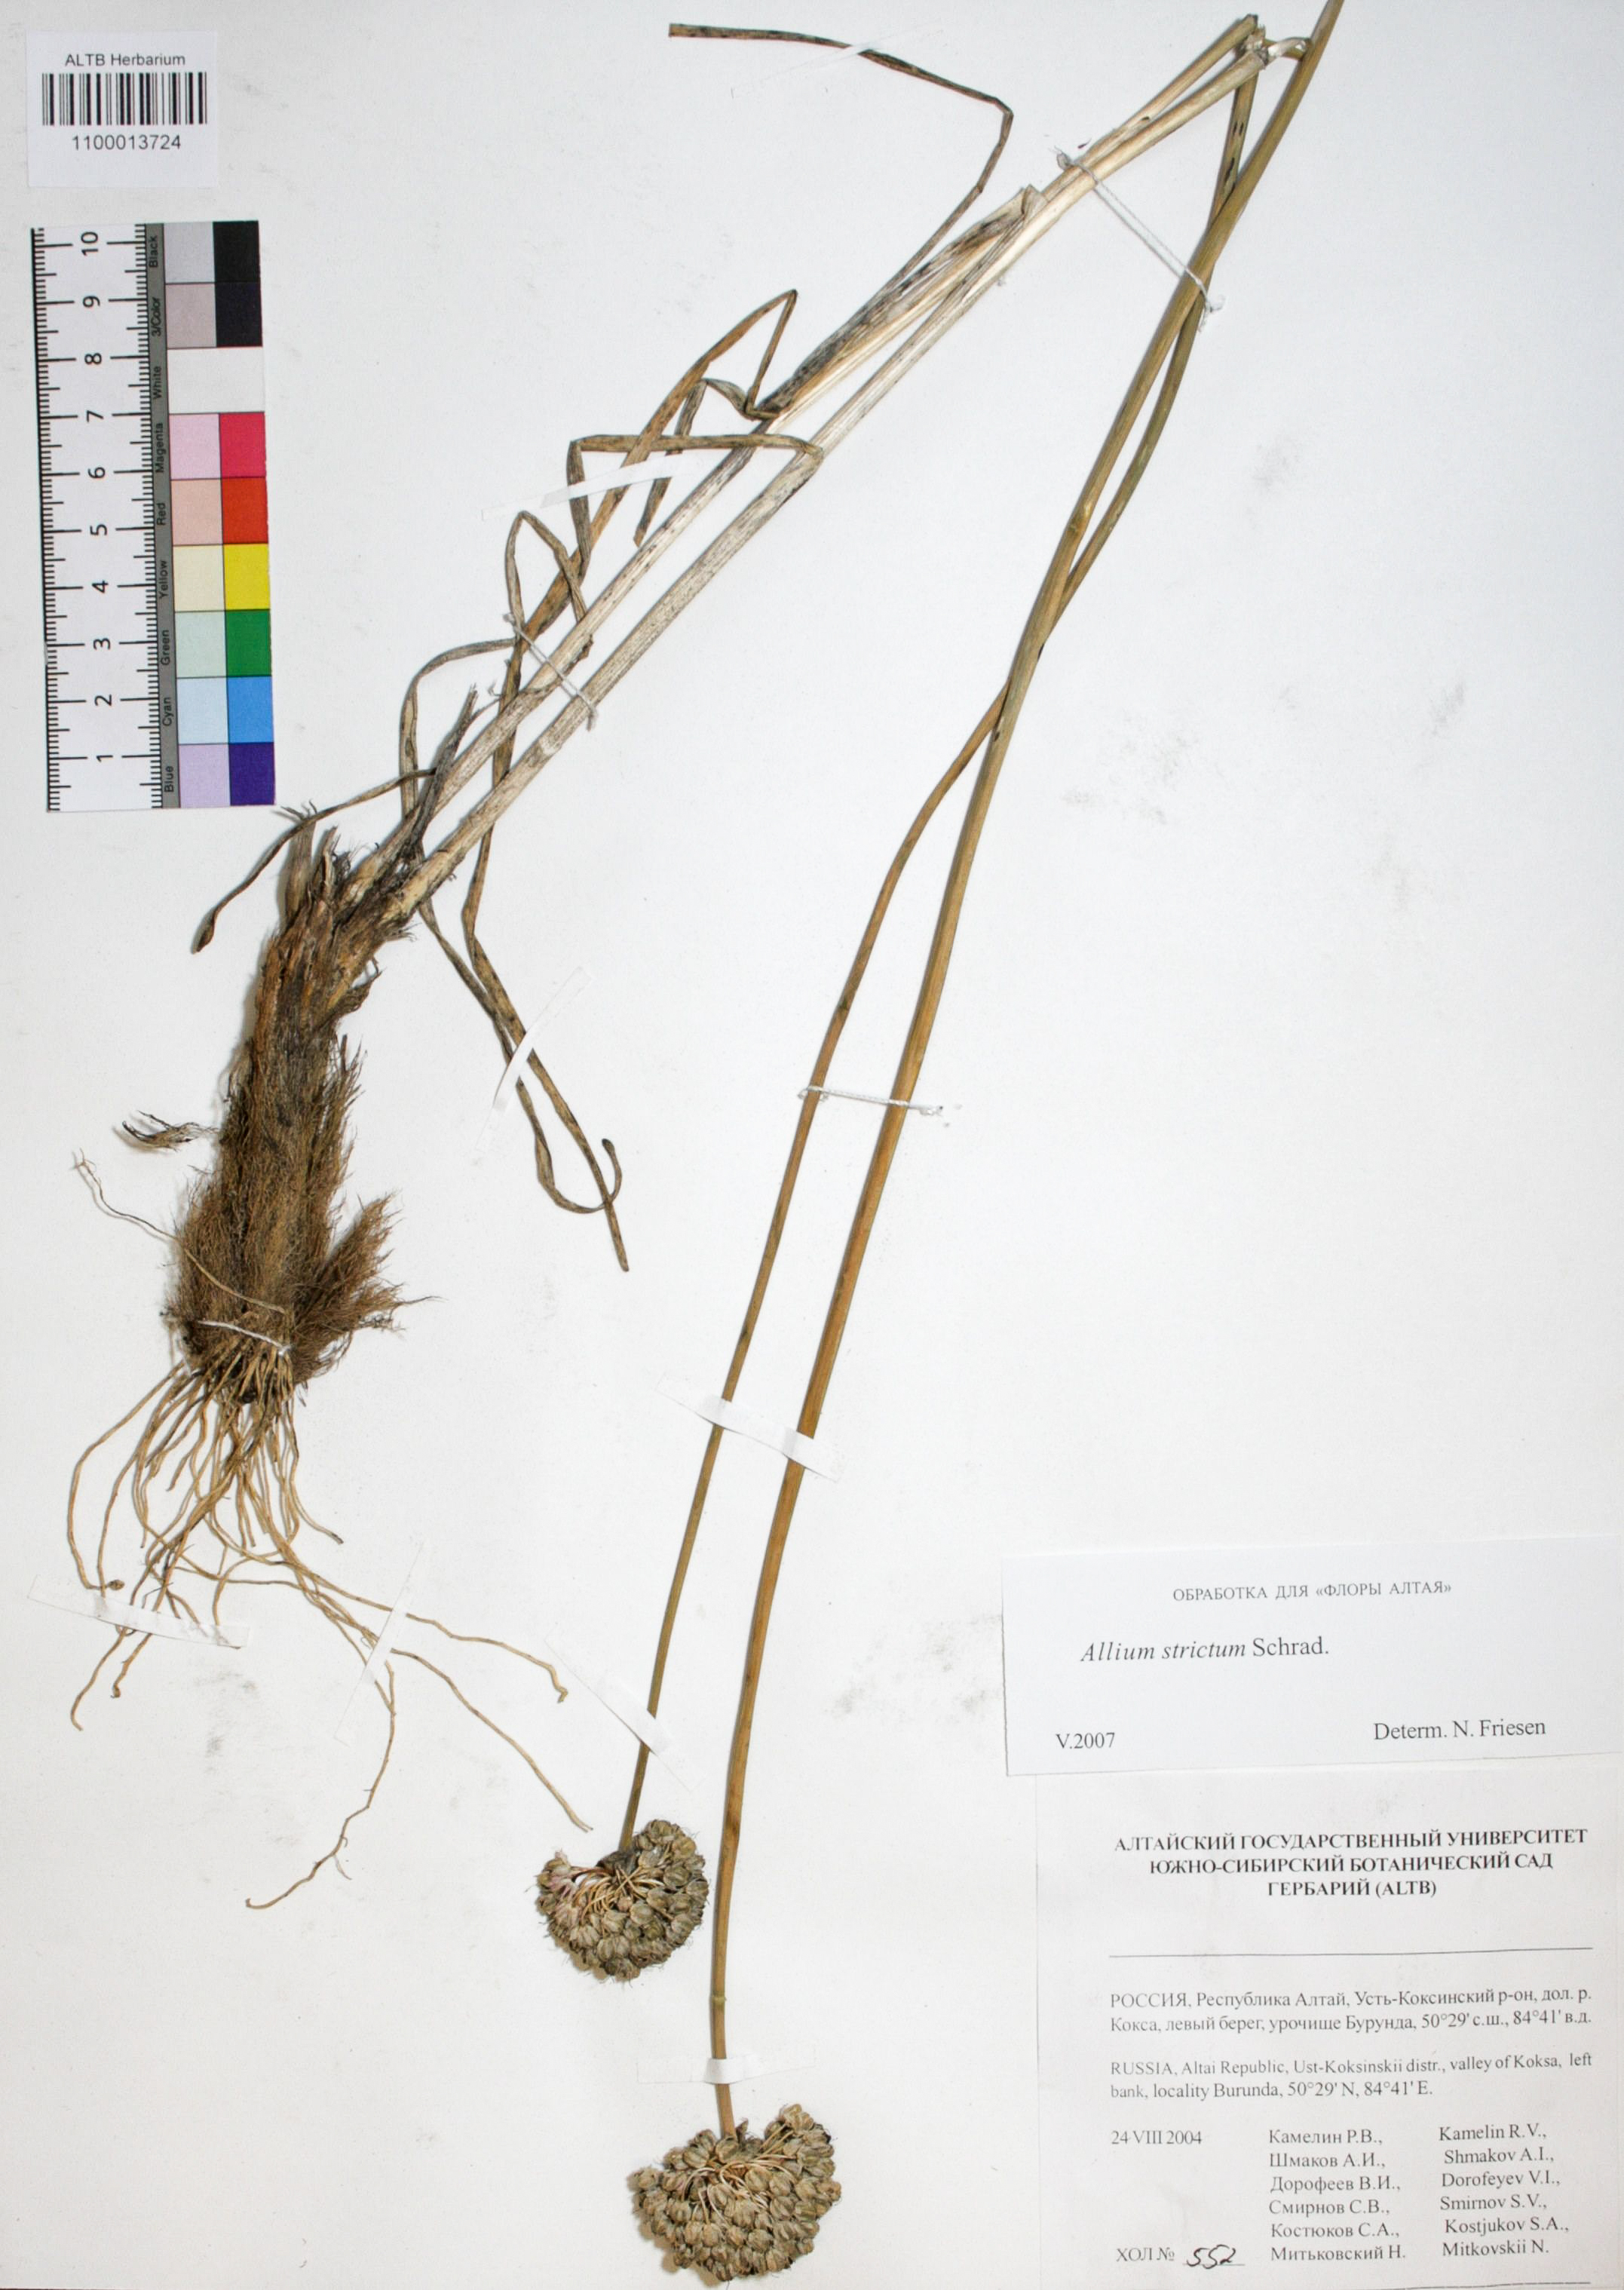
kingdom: Plantae
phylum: Tracheophyta
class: Liliopsida
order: Asparagales
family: Amaryllidaceae
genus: Allium
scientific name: Allium strictum
